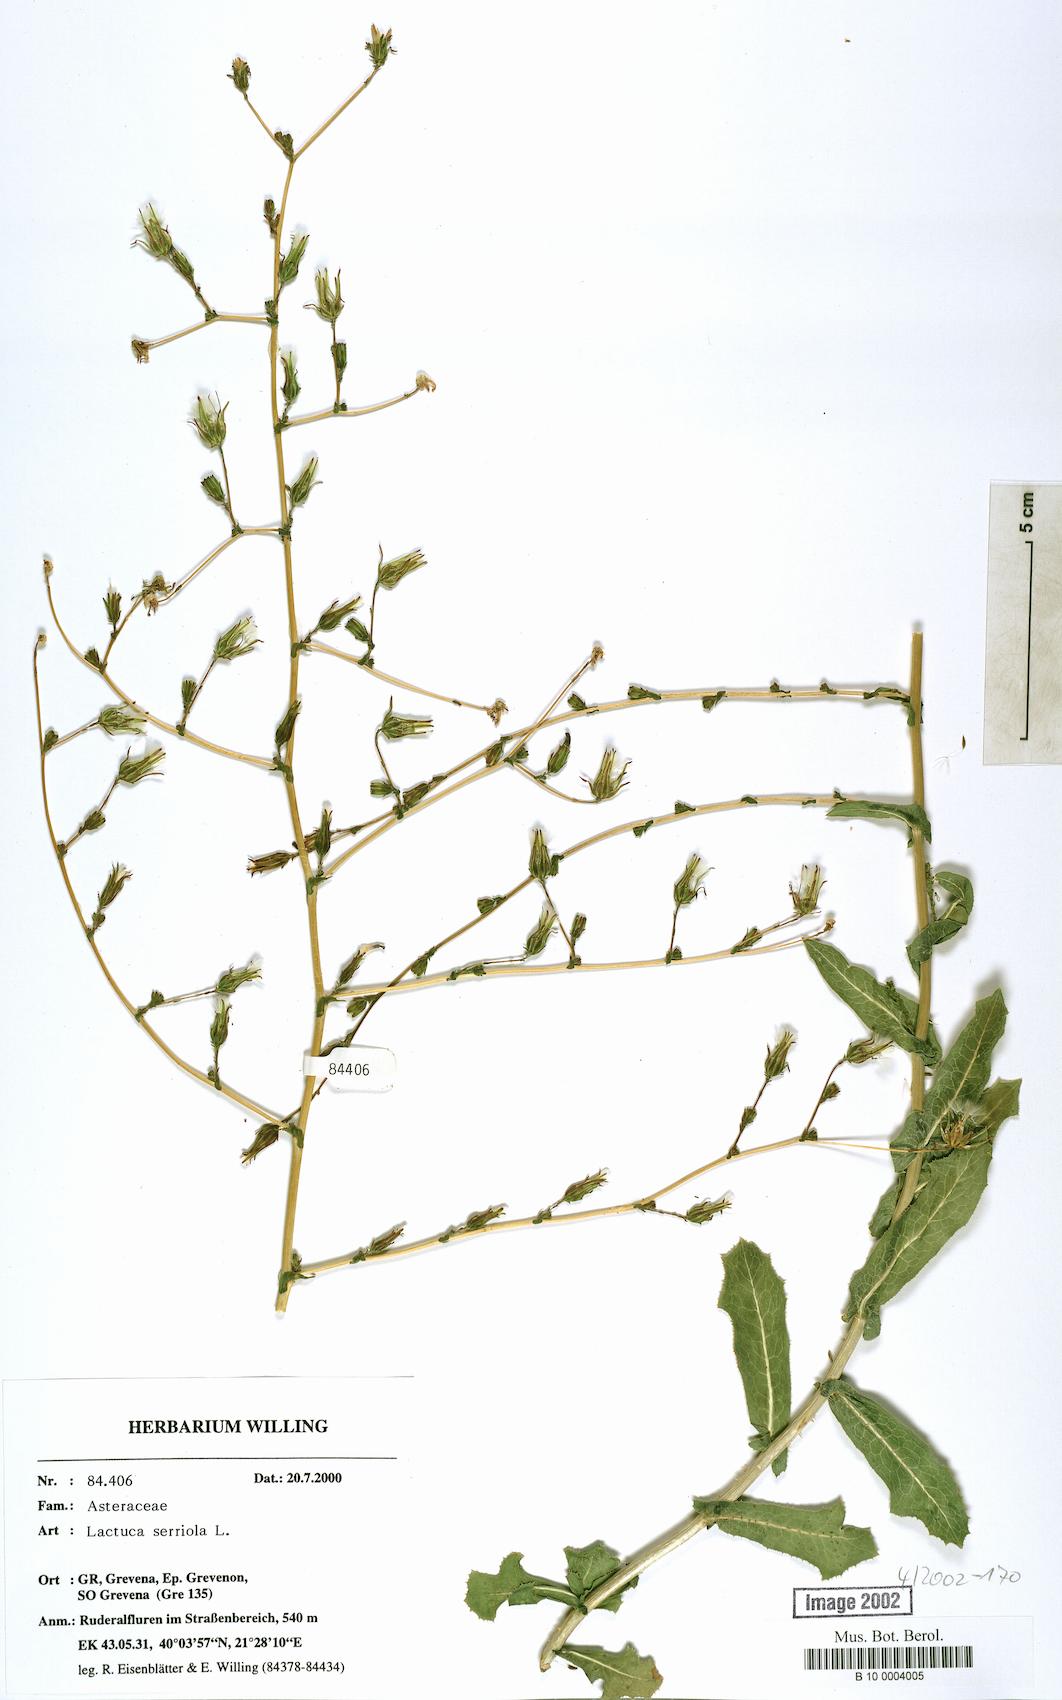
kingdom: Plantae
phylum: Tracheophyta
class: Magnoliopsida
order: Asterales
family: Asteraceae
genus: Lactuca
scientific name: Lactuca serriola
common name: Prickly lettuce
